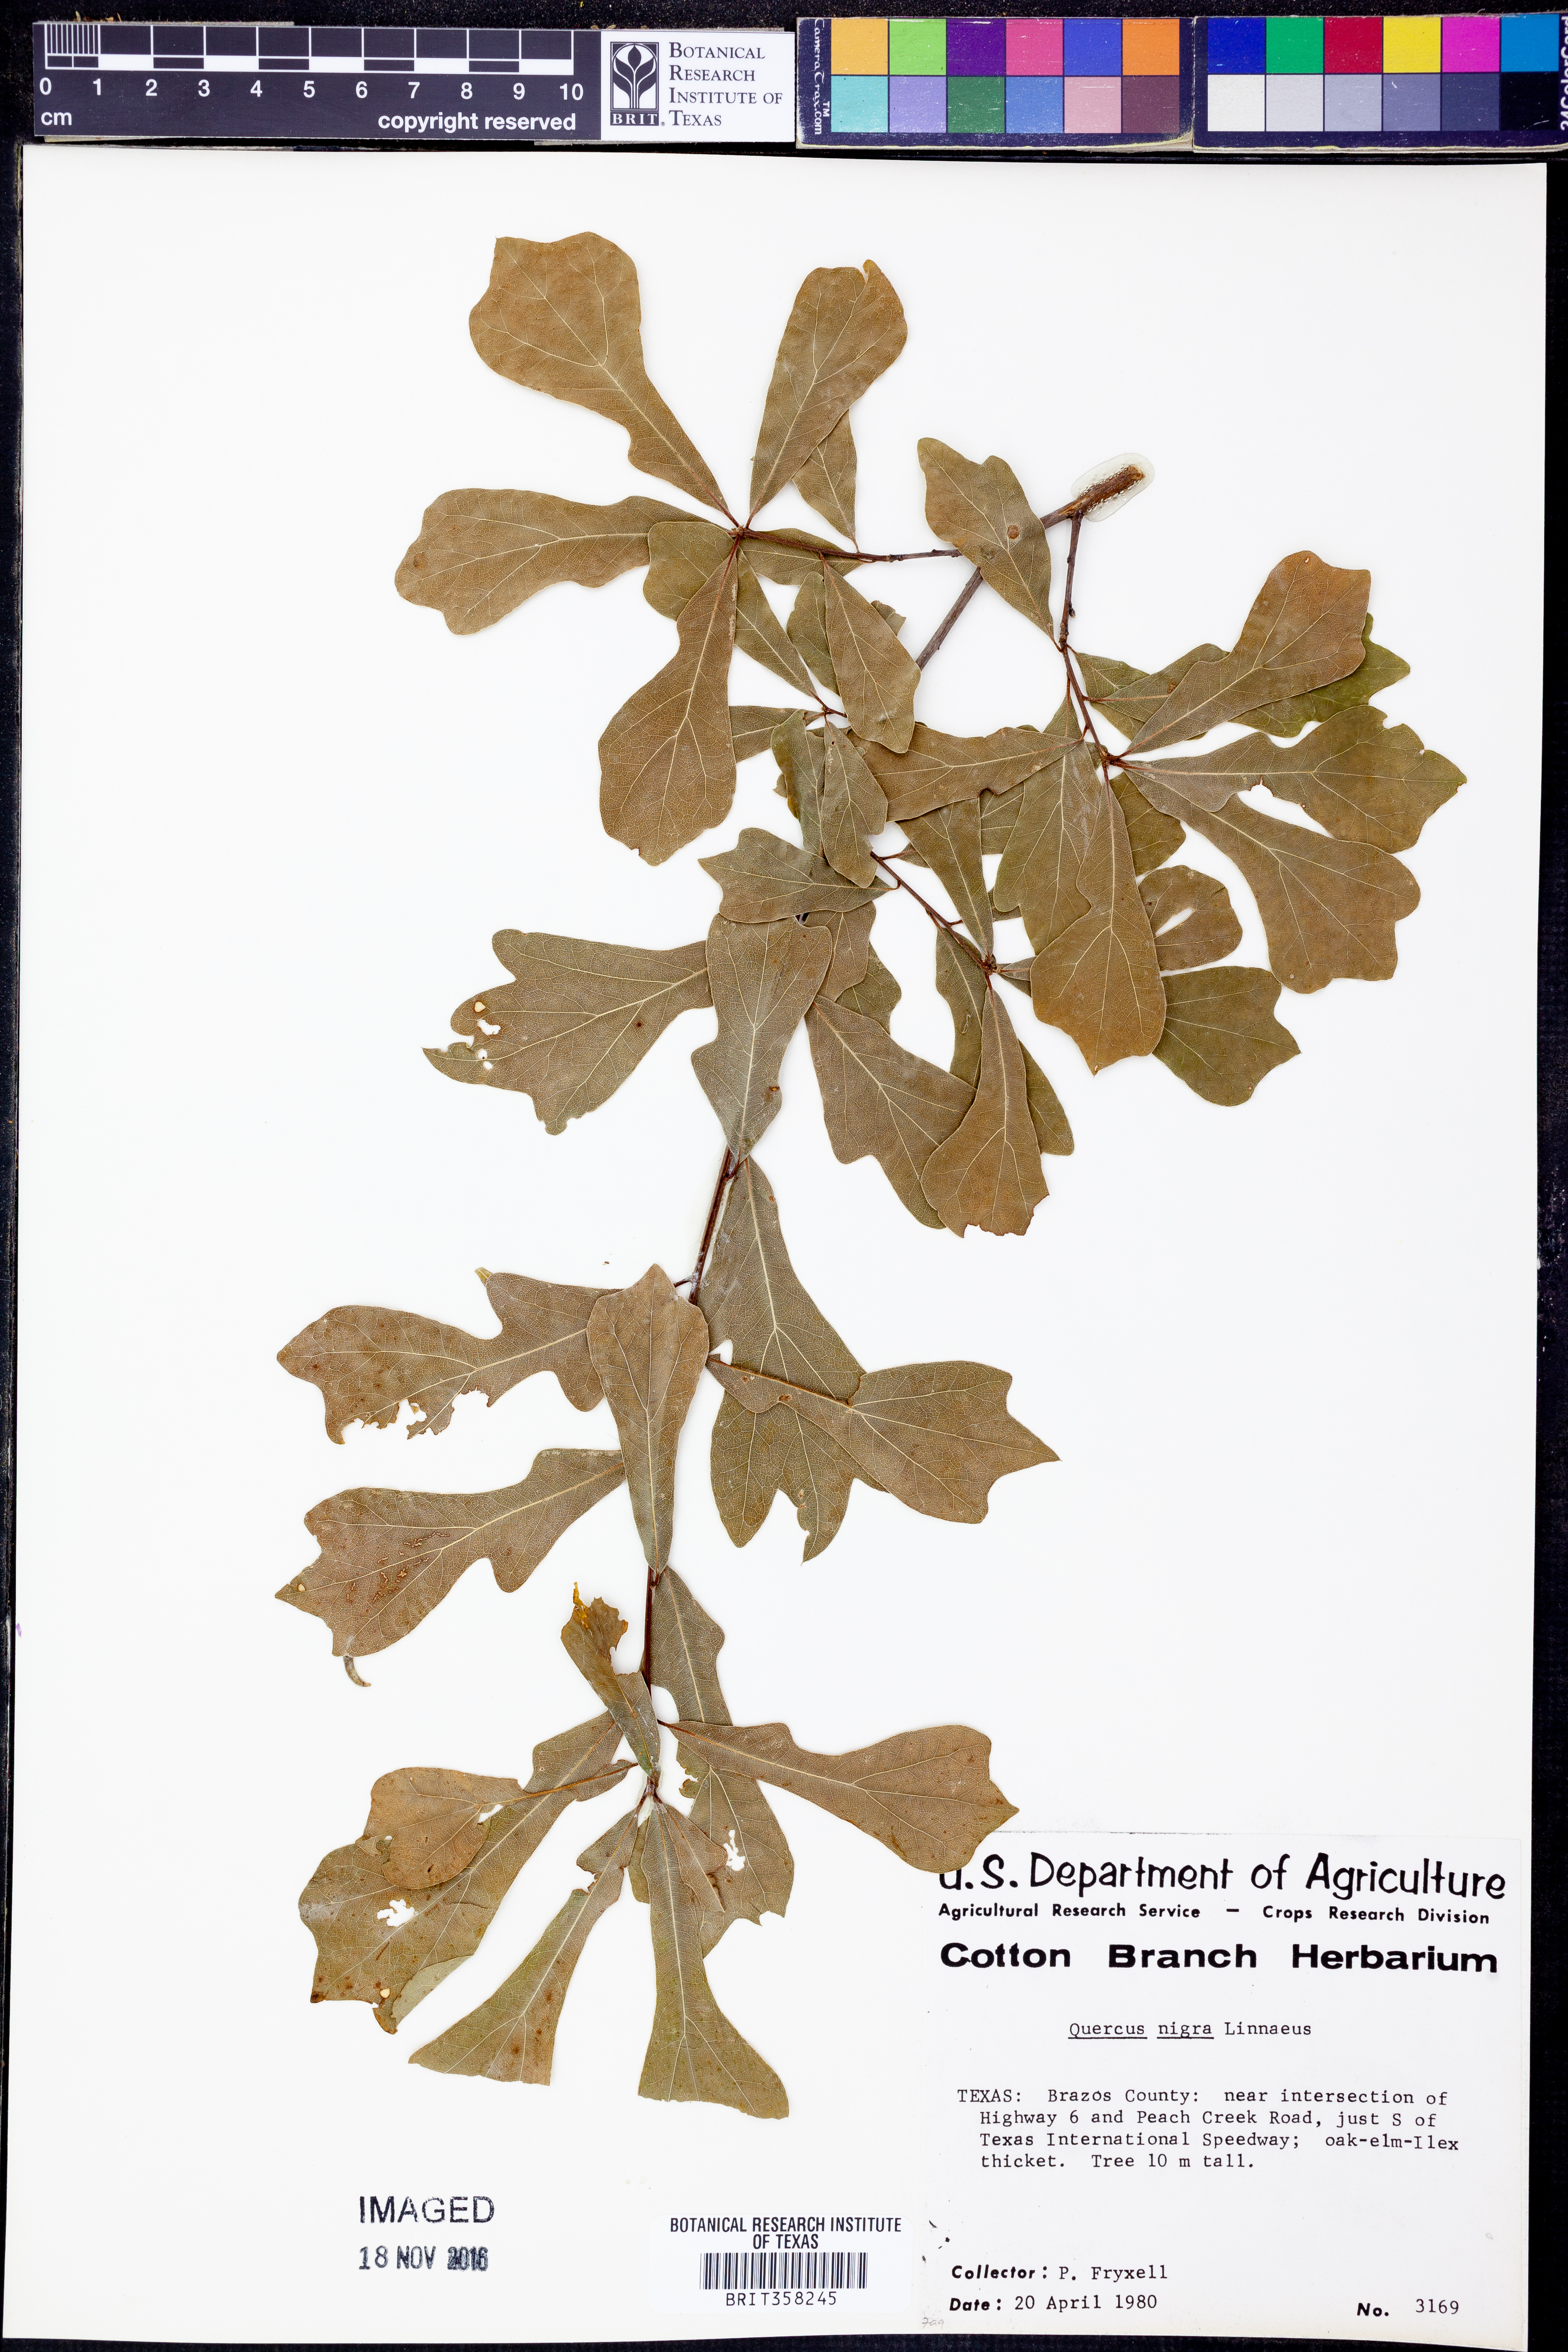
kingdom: Plantae
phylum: Tracheophyta
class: Magnoliopsida
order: Fagales
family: Fagaceae
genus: Quercus
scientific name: Quercus nigra
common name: Water oak
